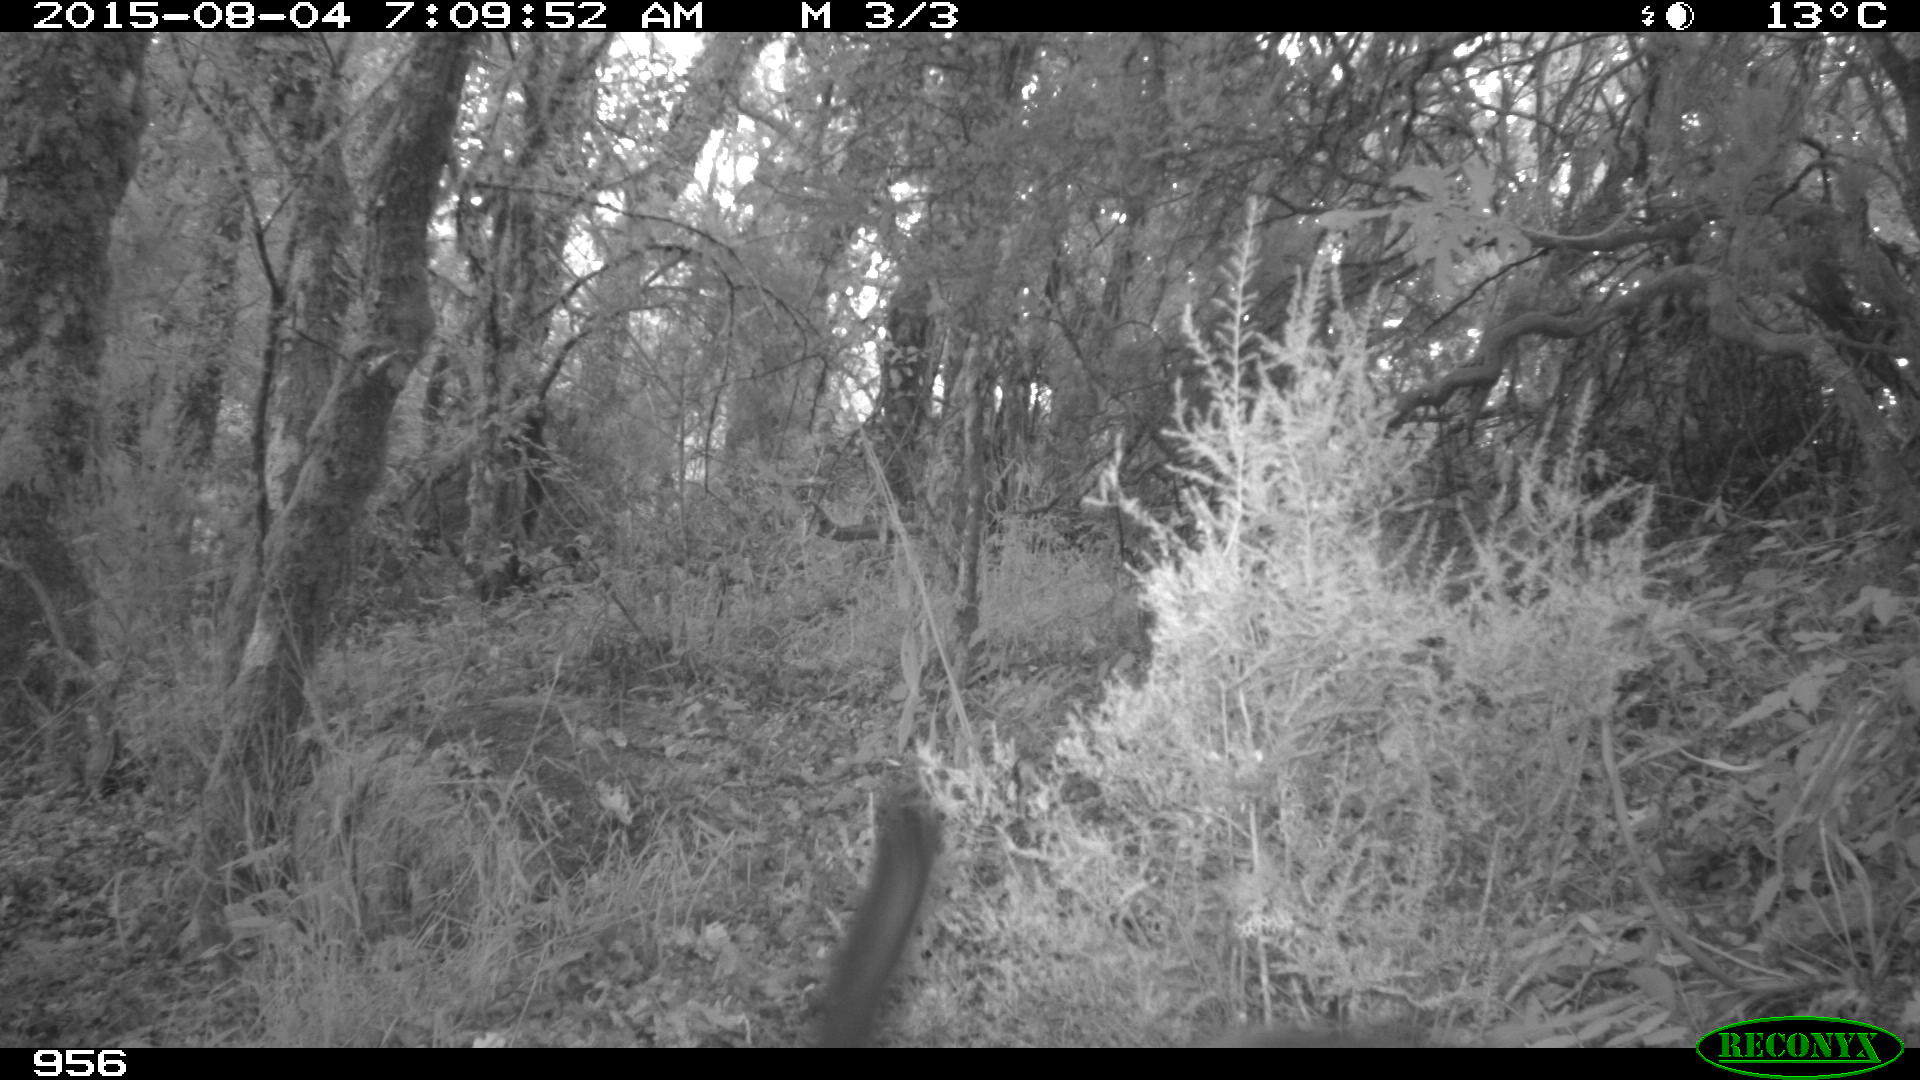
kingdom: Animalia
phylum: Chordata
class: Mammalia
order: Carnivora
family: Canidae
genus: Canis
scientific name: Canis lupus
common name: Gray wolf
